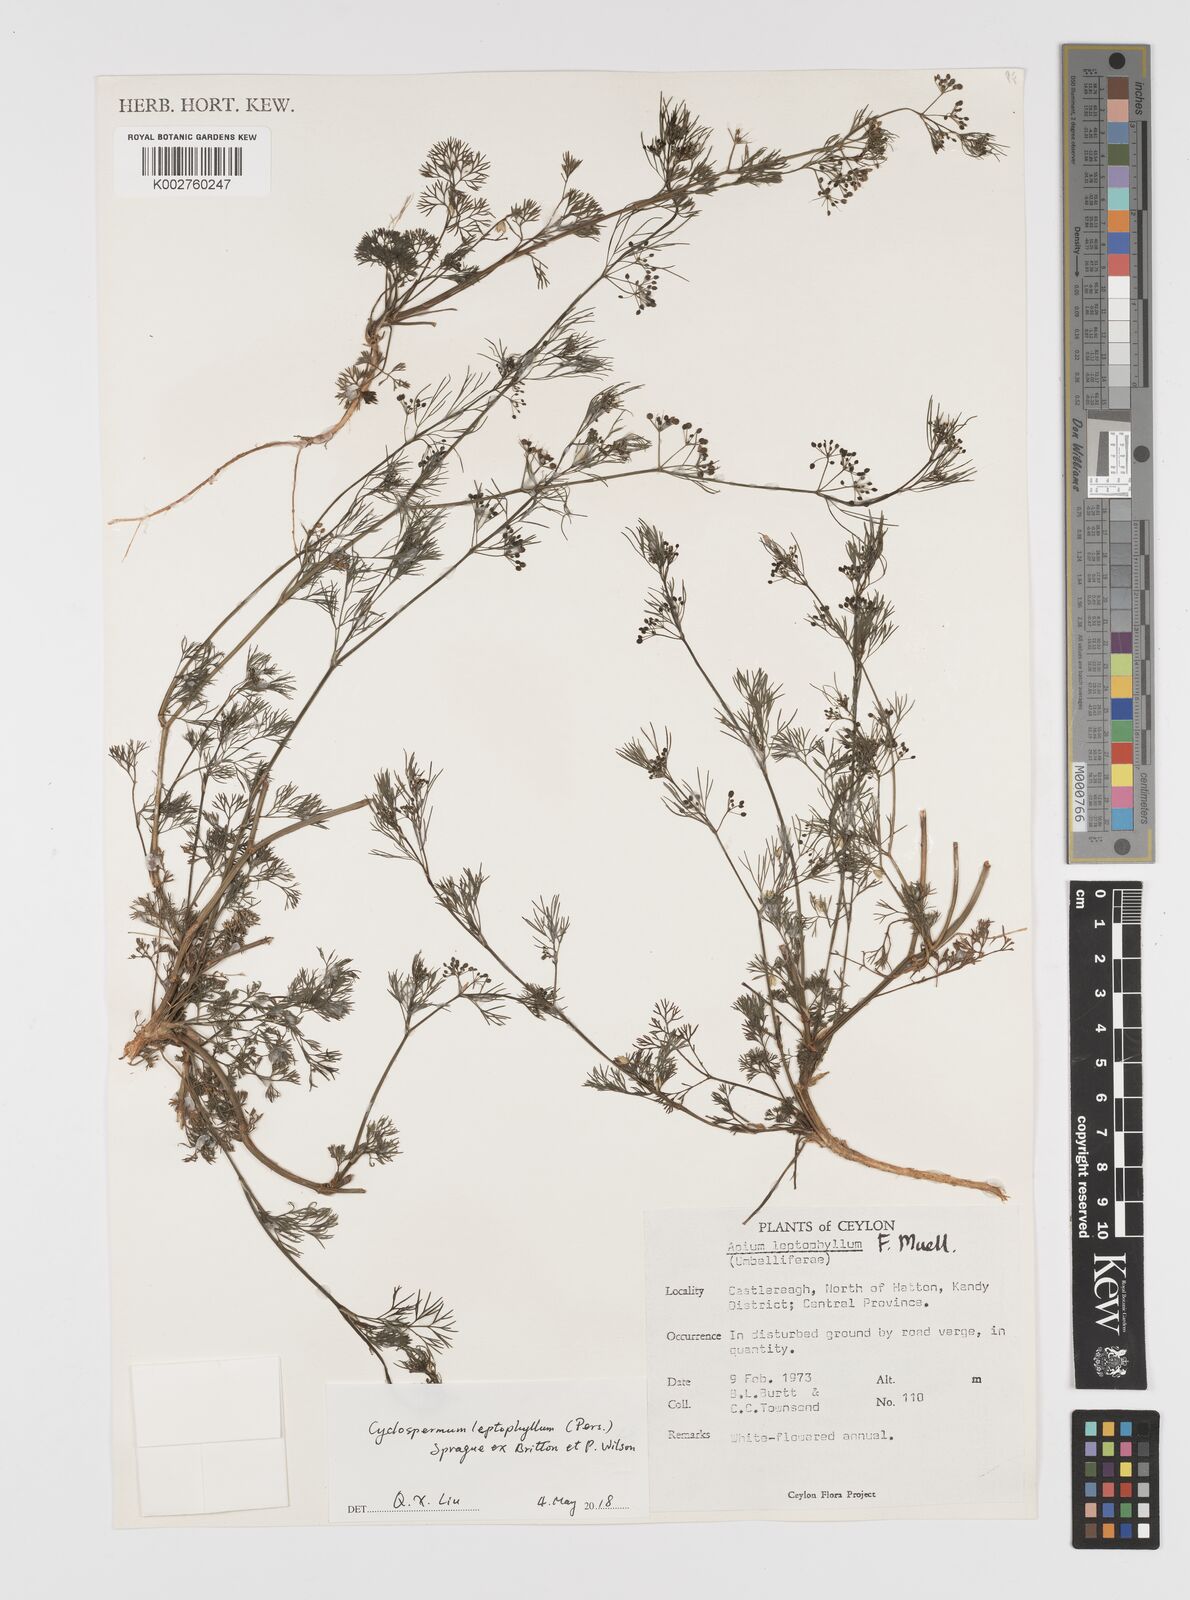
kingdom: Plantae
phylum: Tracheophyta
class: Magnoliopsida
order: Apiales
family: Apiaceae
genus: Cyclospermum
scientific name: Cyclospermum leptophyllum
